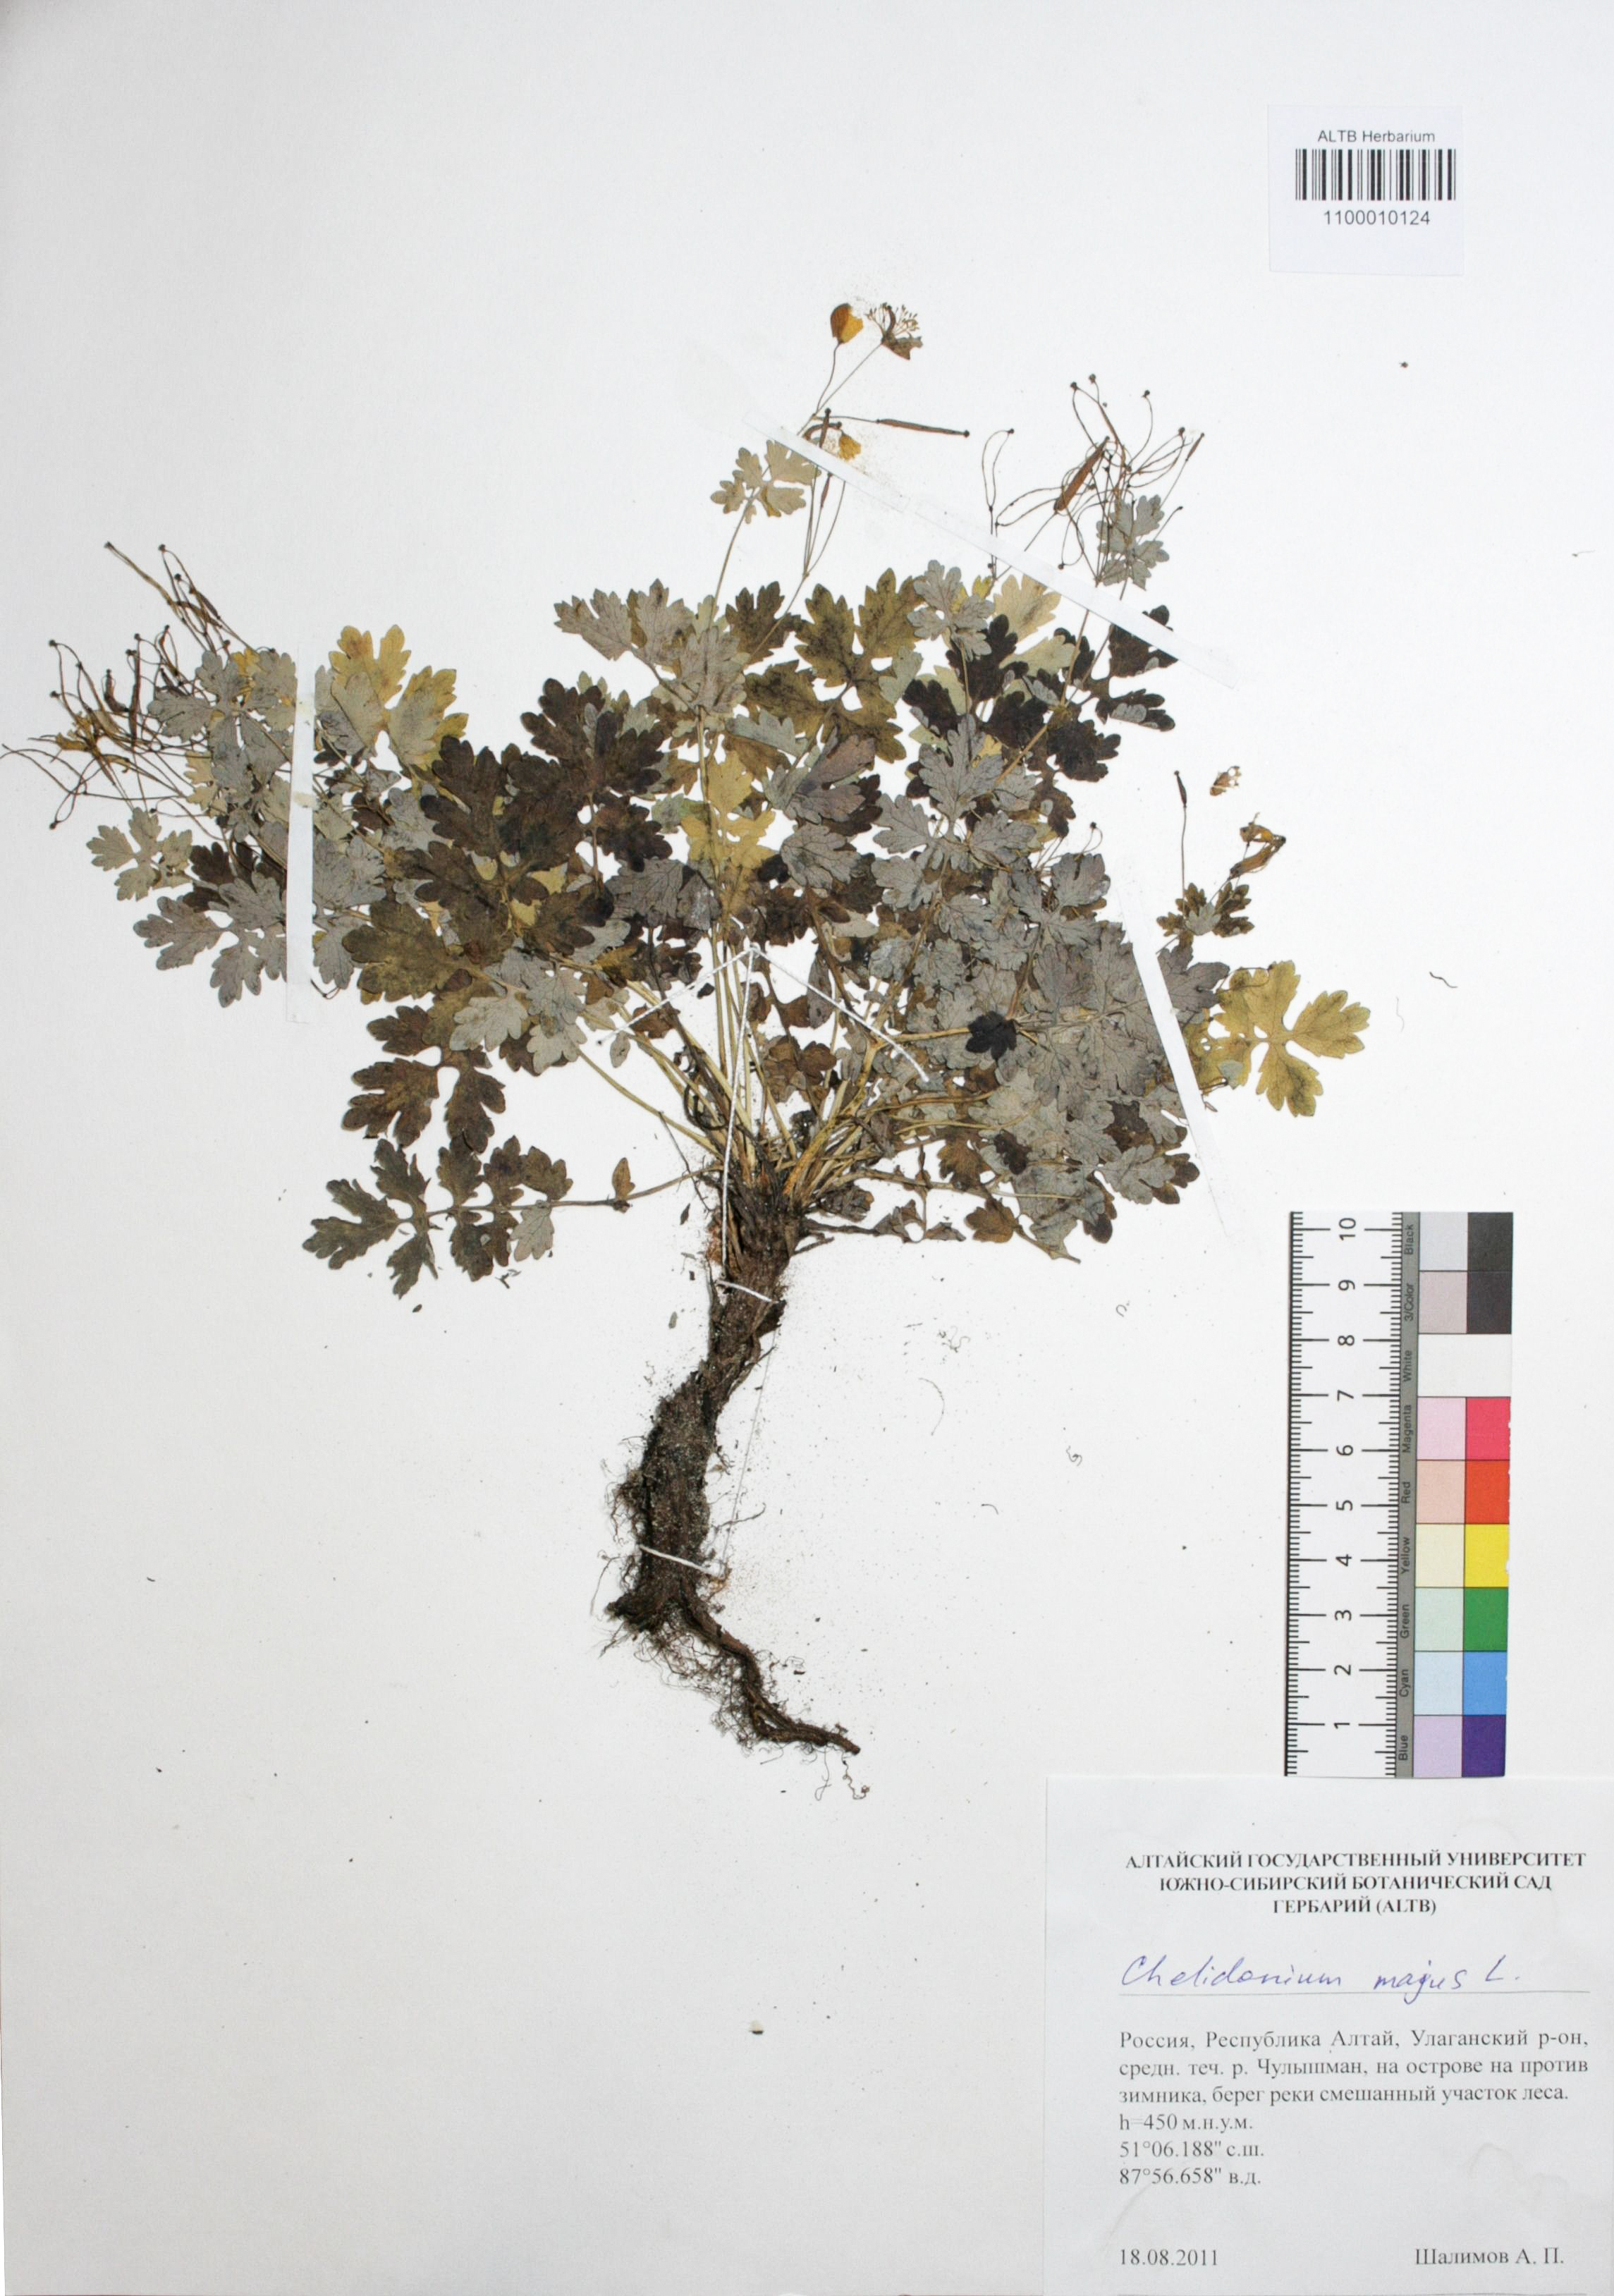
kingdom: Plantae
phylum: Tracheophyta
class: Magnoliopsida
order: Ranunculales
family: Papaveraceae
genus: Chelidonium
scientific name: Chelidonium majus
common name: Greater celandine
